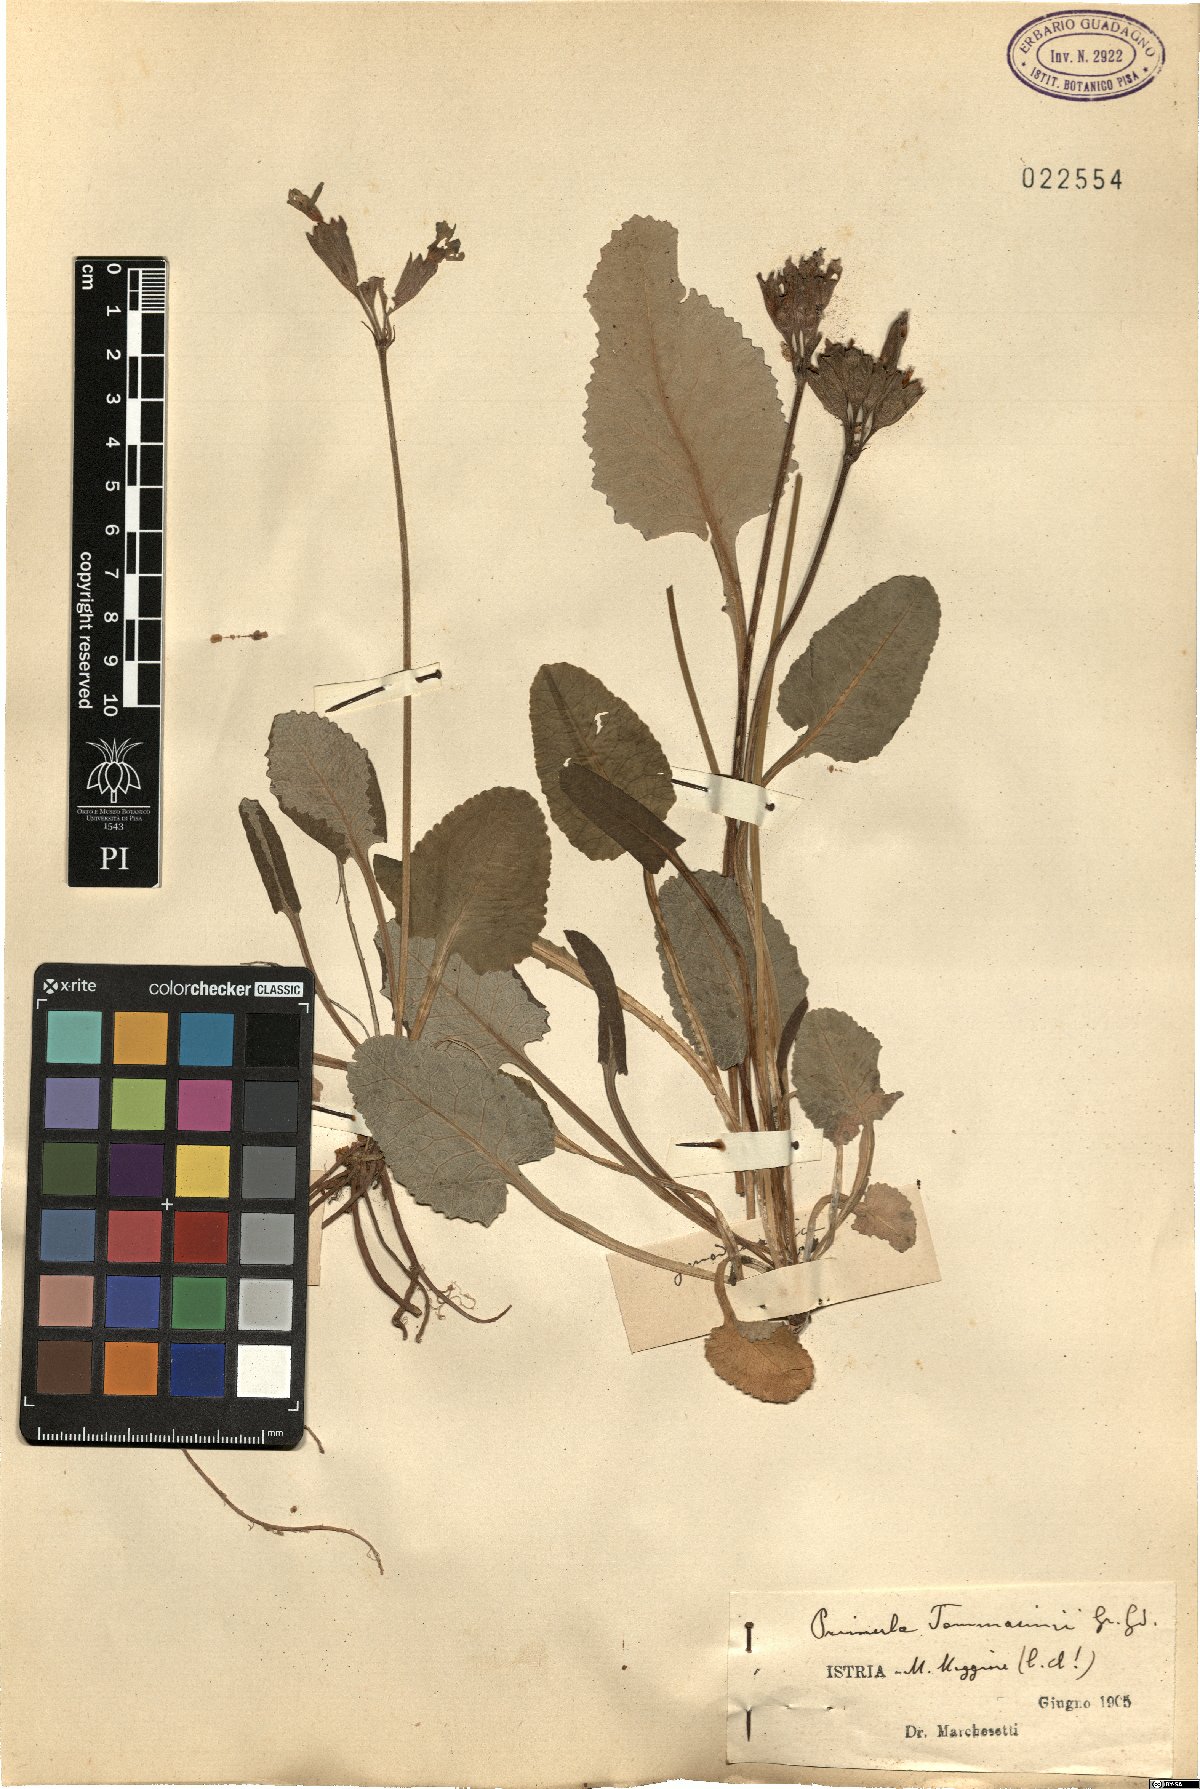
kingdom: Plantae
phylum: Tracheophyta
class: Magnoliopsida
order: Ericales
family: Primulaceae
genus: Primula
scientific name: Primula polyantha
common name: False oxlip
